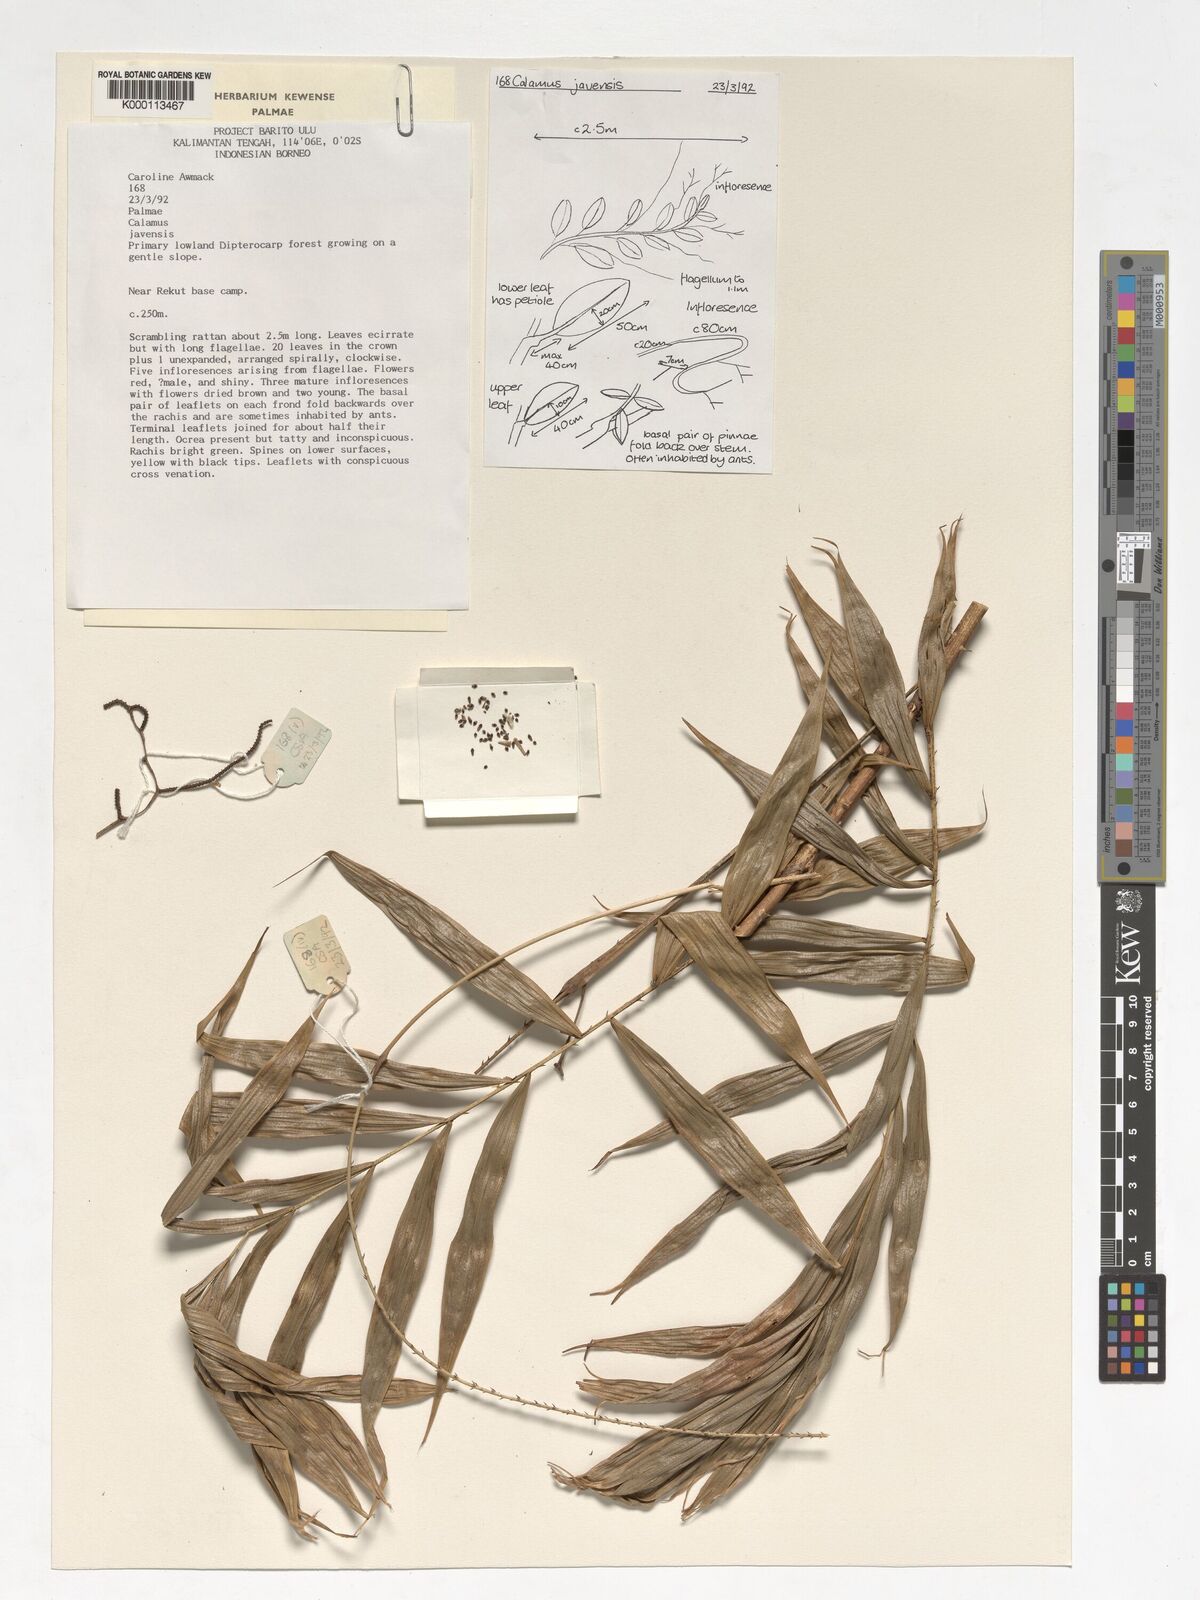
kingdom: Plantae
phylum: Tracheophyta
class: Liliopsida
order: Arecales
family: Arecaceae
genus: Calamus
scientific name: Calamus javensis
